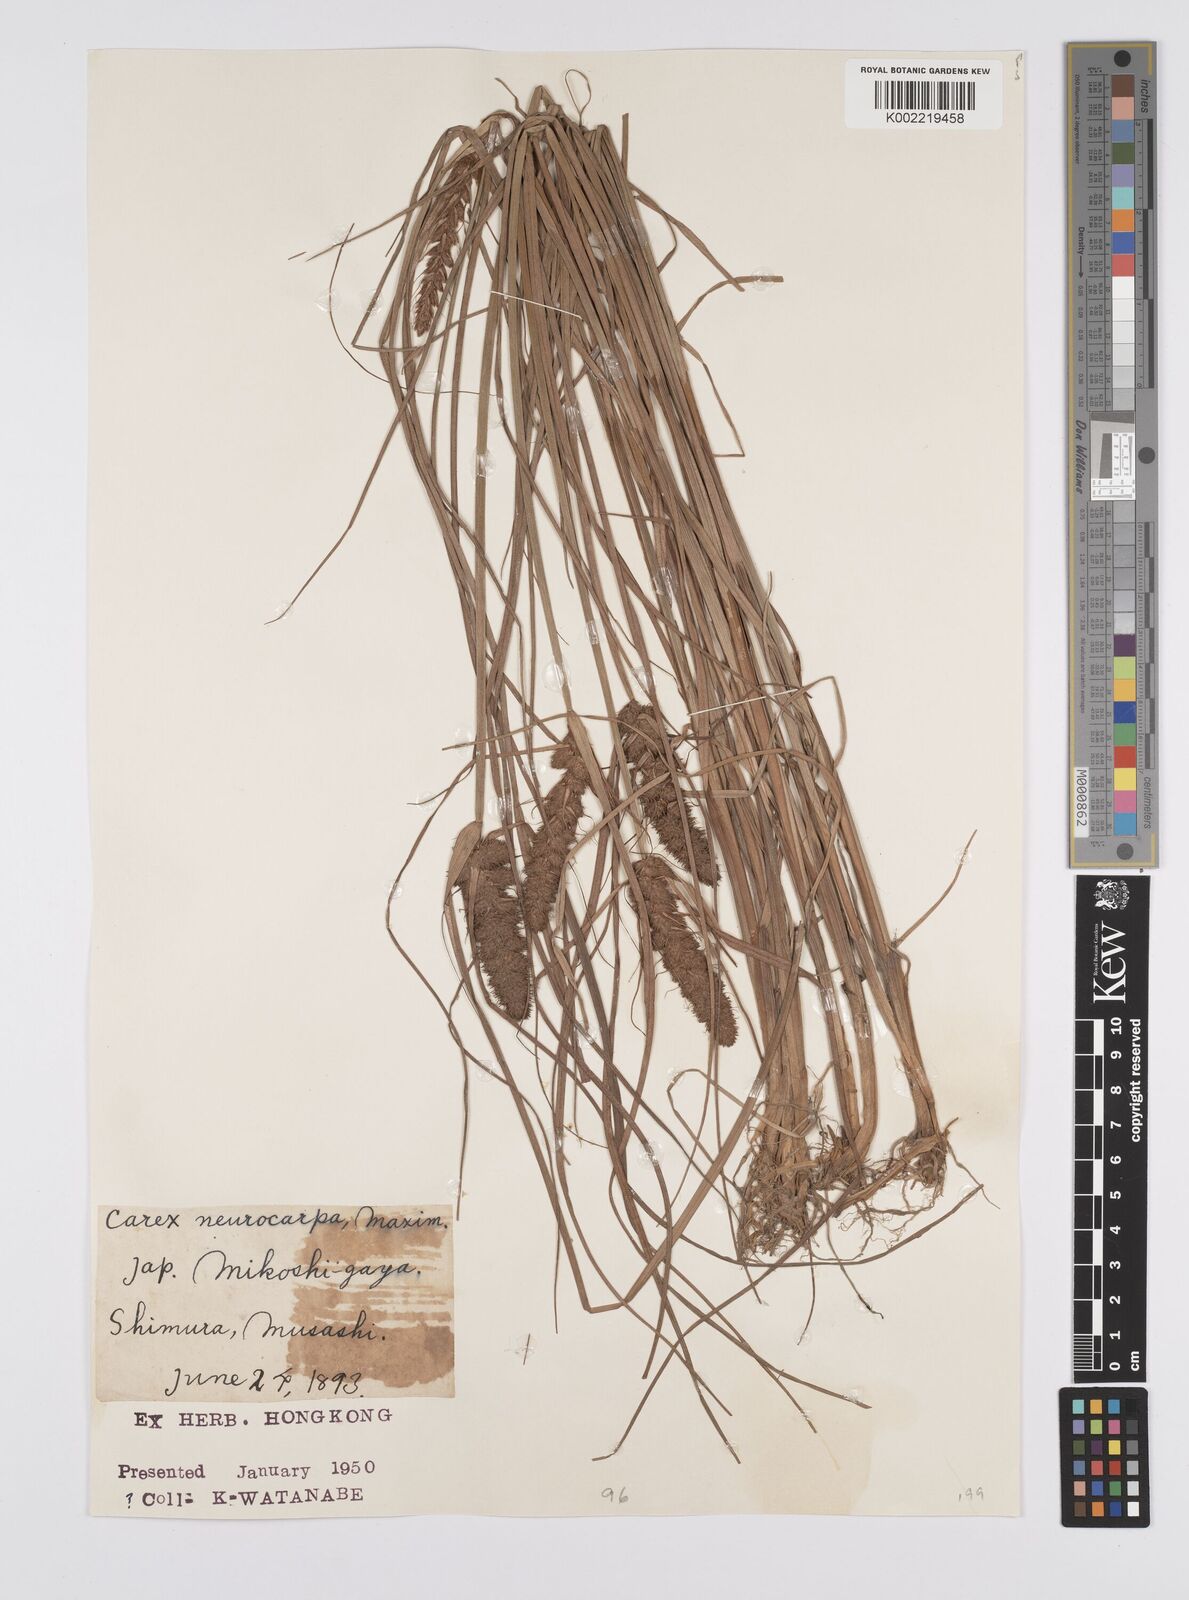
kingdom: Plantae
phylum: Tracheophyta
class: Liliopsida
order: Poales
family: Cyperaceae
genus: Carex
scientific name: Carex neurocarpa
